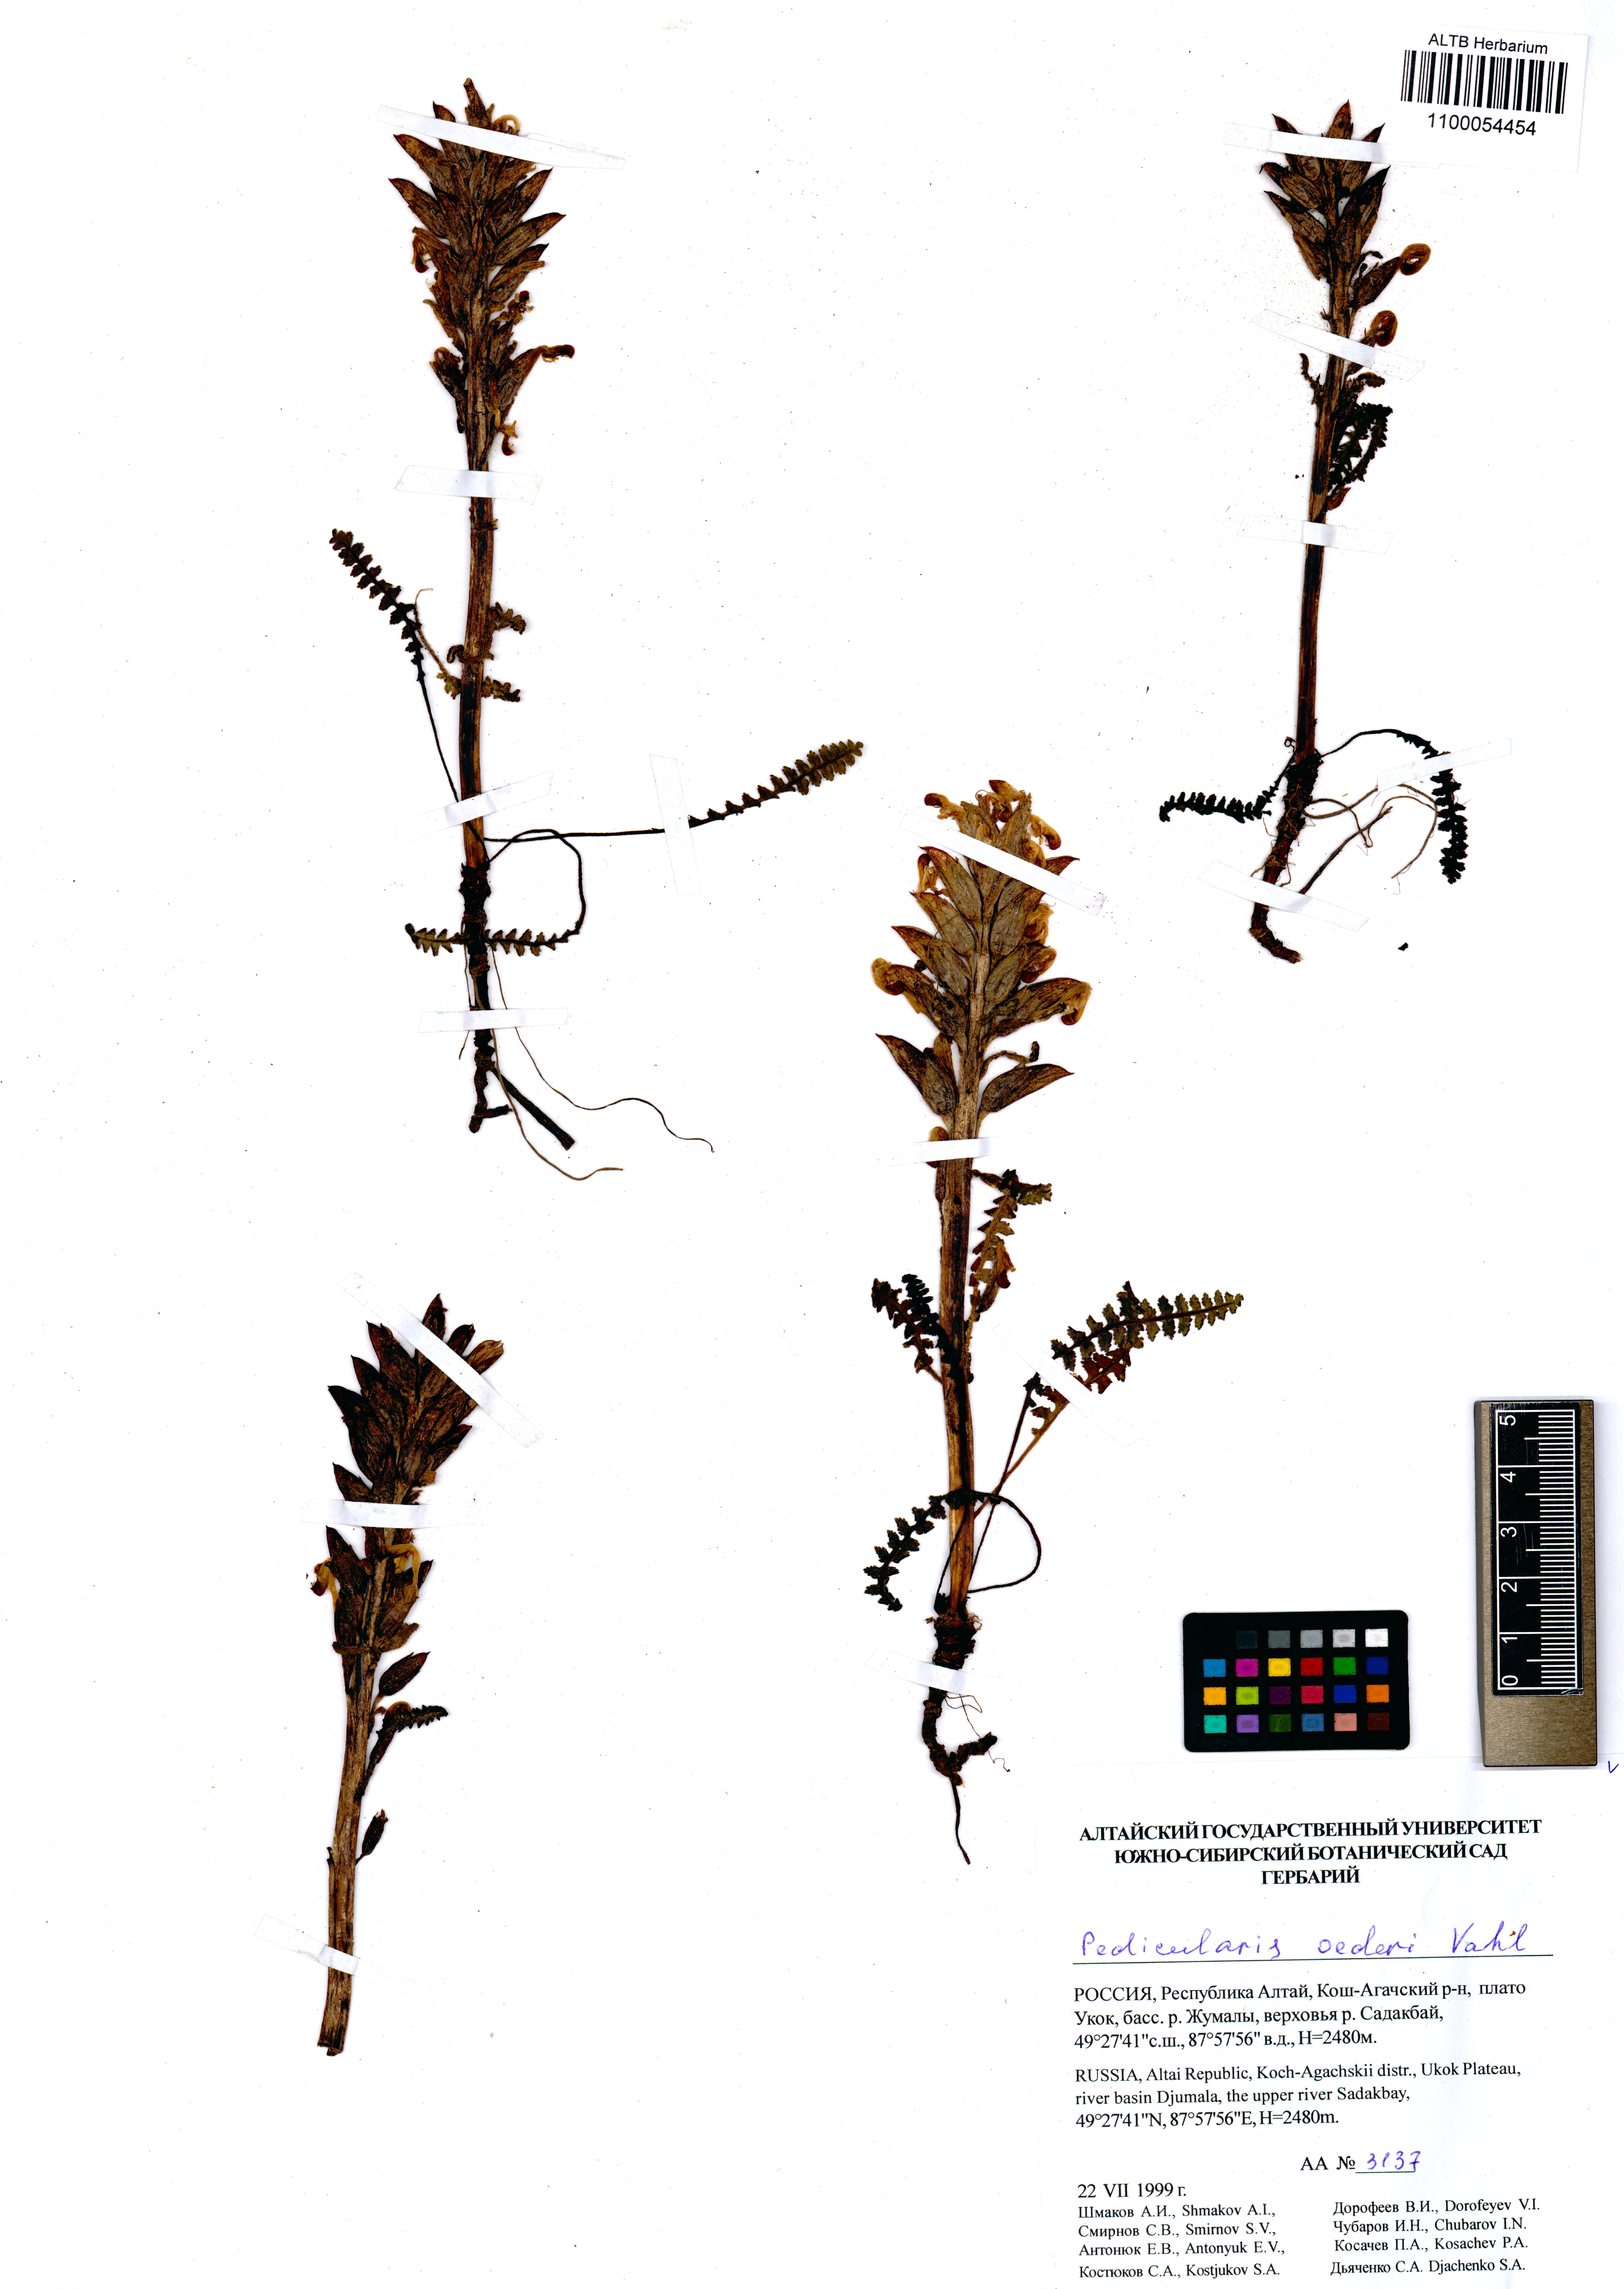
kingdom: Plantae
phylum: Tracheophyta
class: Magnoliopsida
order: Lamiales
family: Orobanchaceae
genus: Pedicularis
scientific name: Pedicularis oederi
